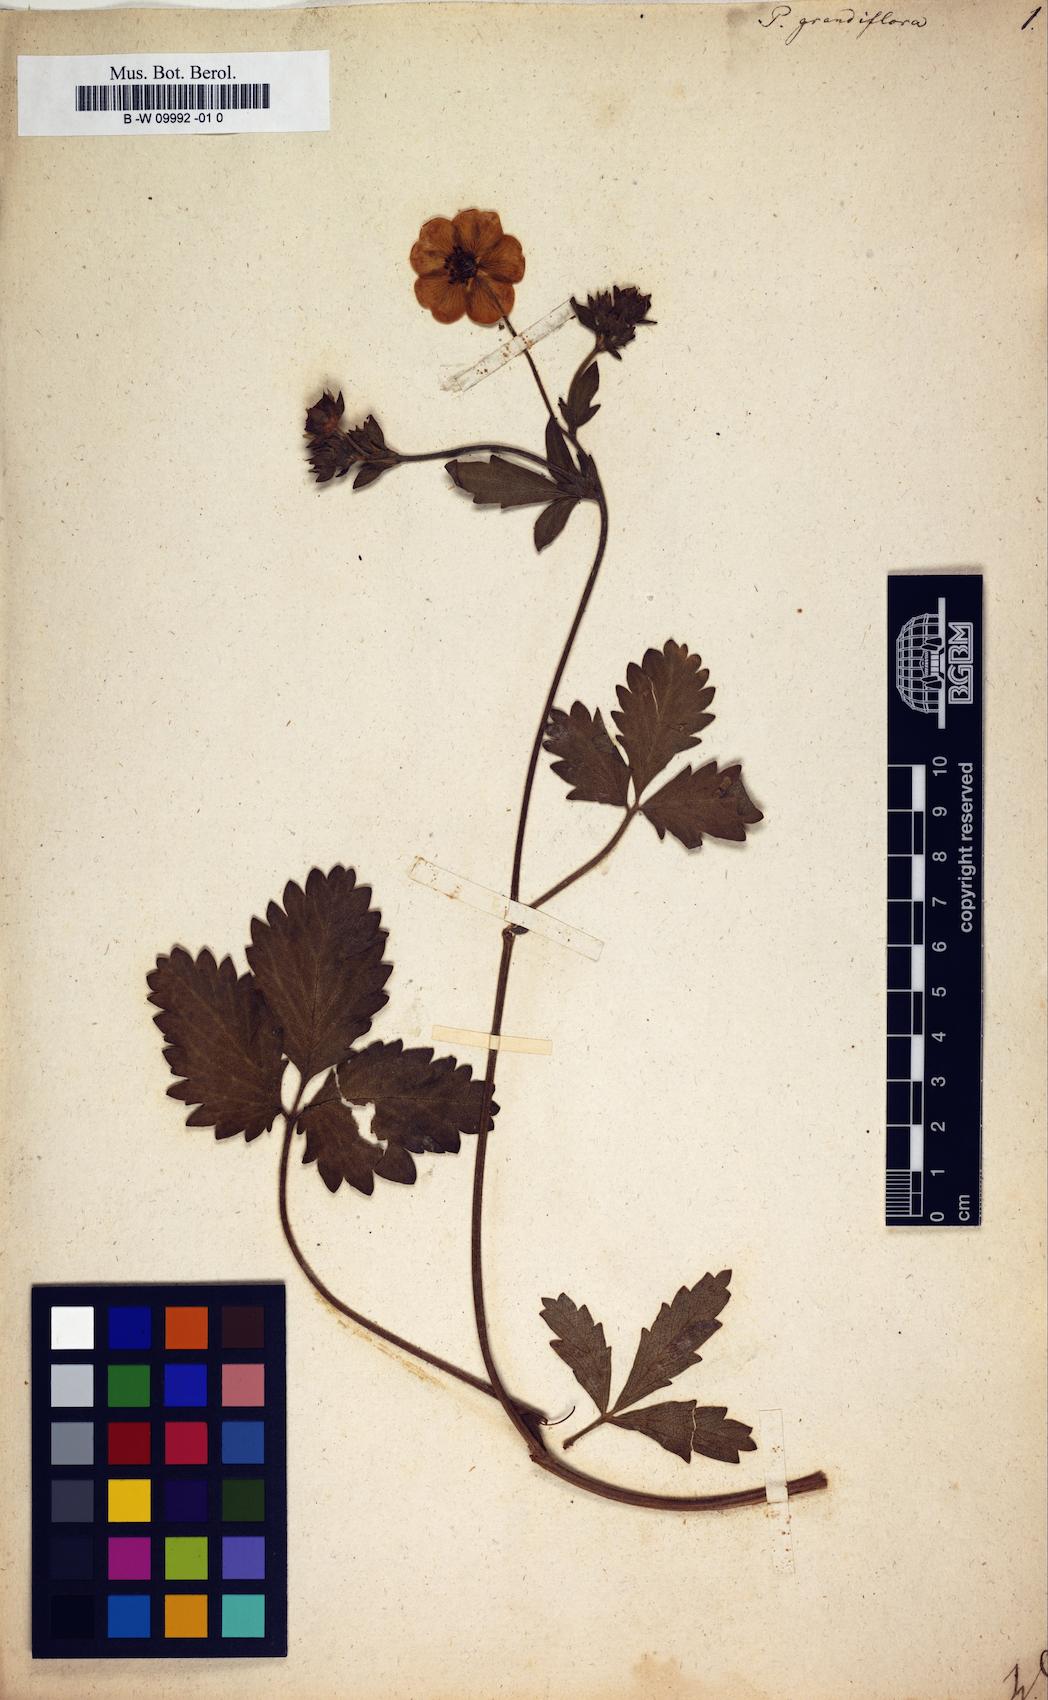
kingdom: Plantae
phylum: Tracheophyta
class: Magnoliopsida
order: Rosales
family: Rosaceae
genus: Potentilla
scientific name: Potentilla grandiflora
